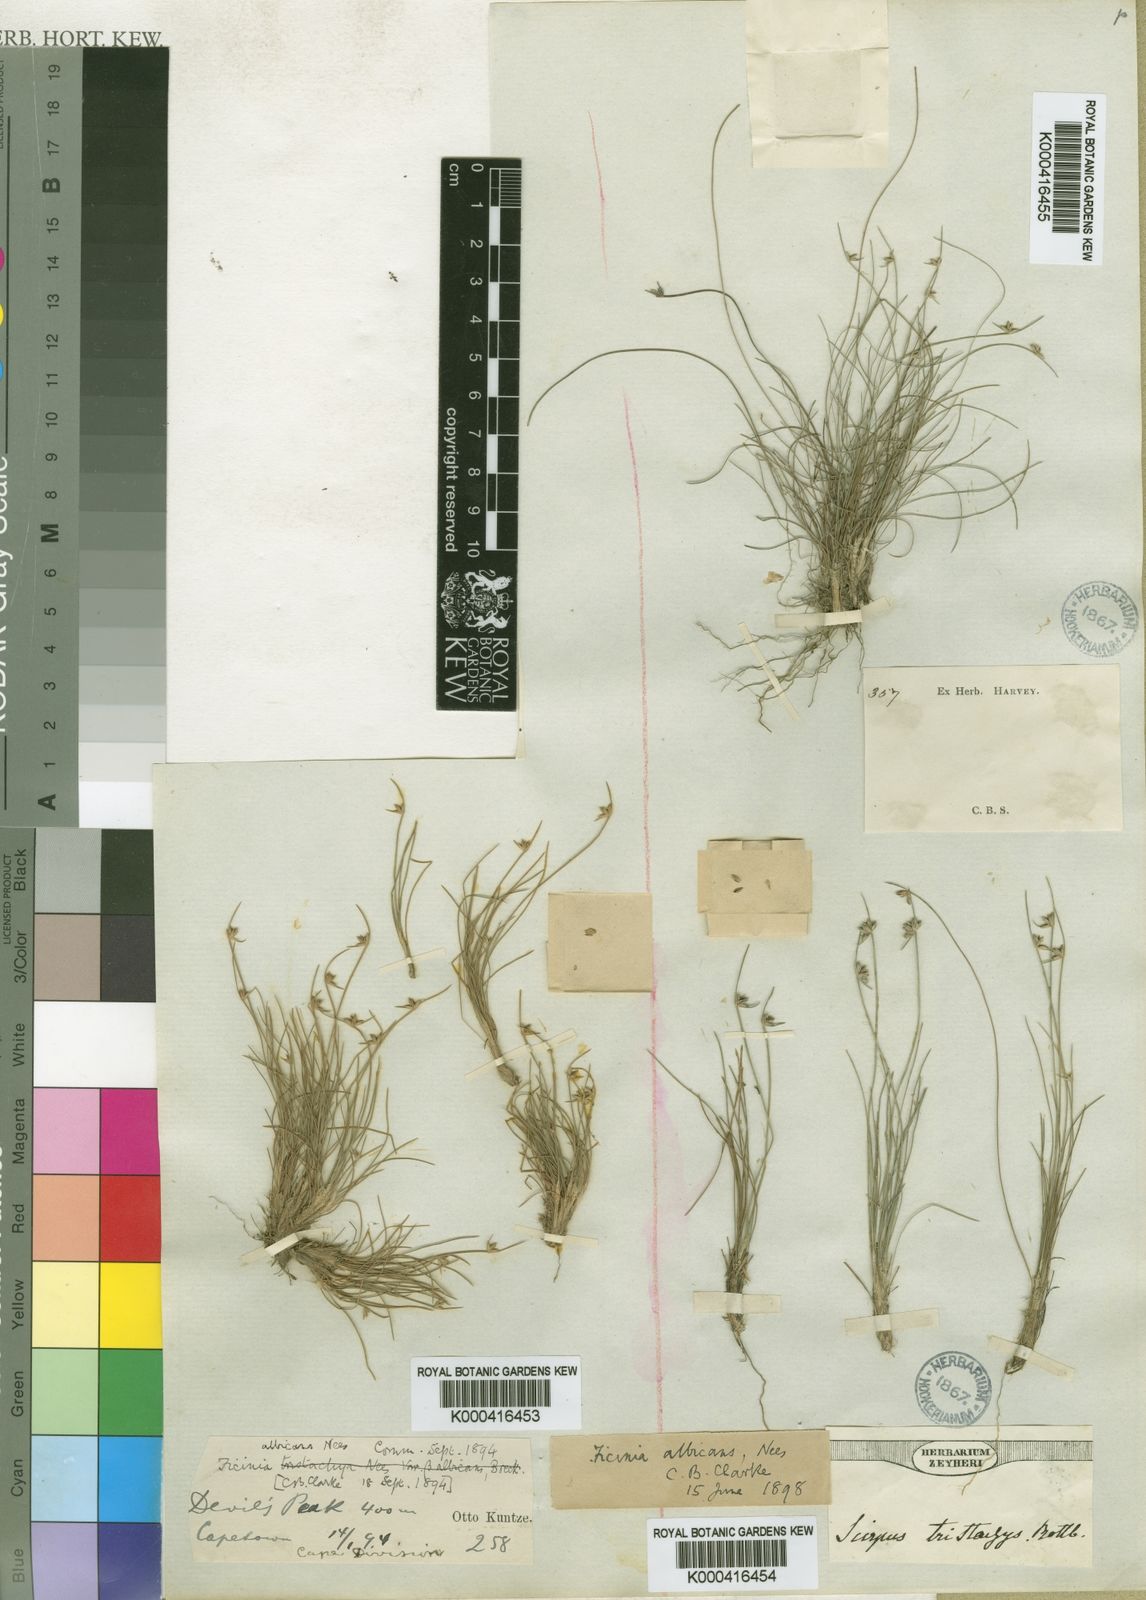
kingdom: Plantae
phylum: Tracheophyta
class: Liliopsida
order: Poales
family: Cyperaceae
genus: Ficinia
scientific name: Ficinia albicans
